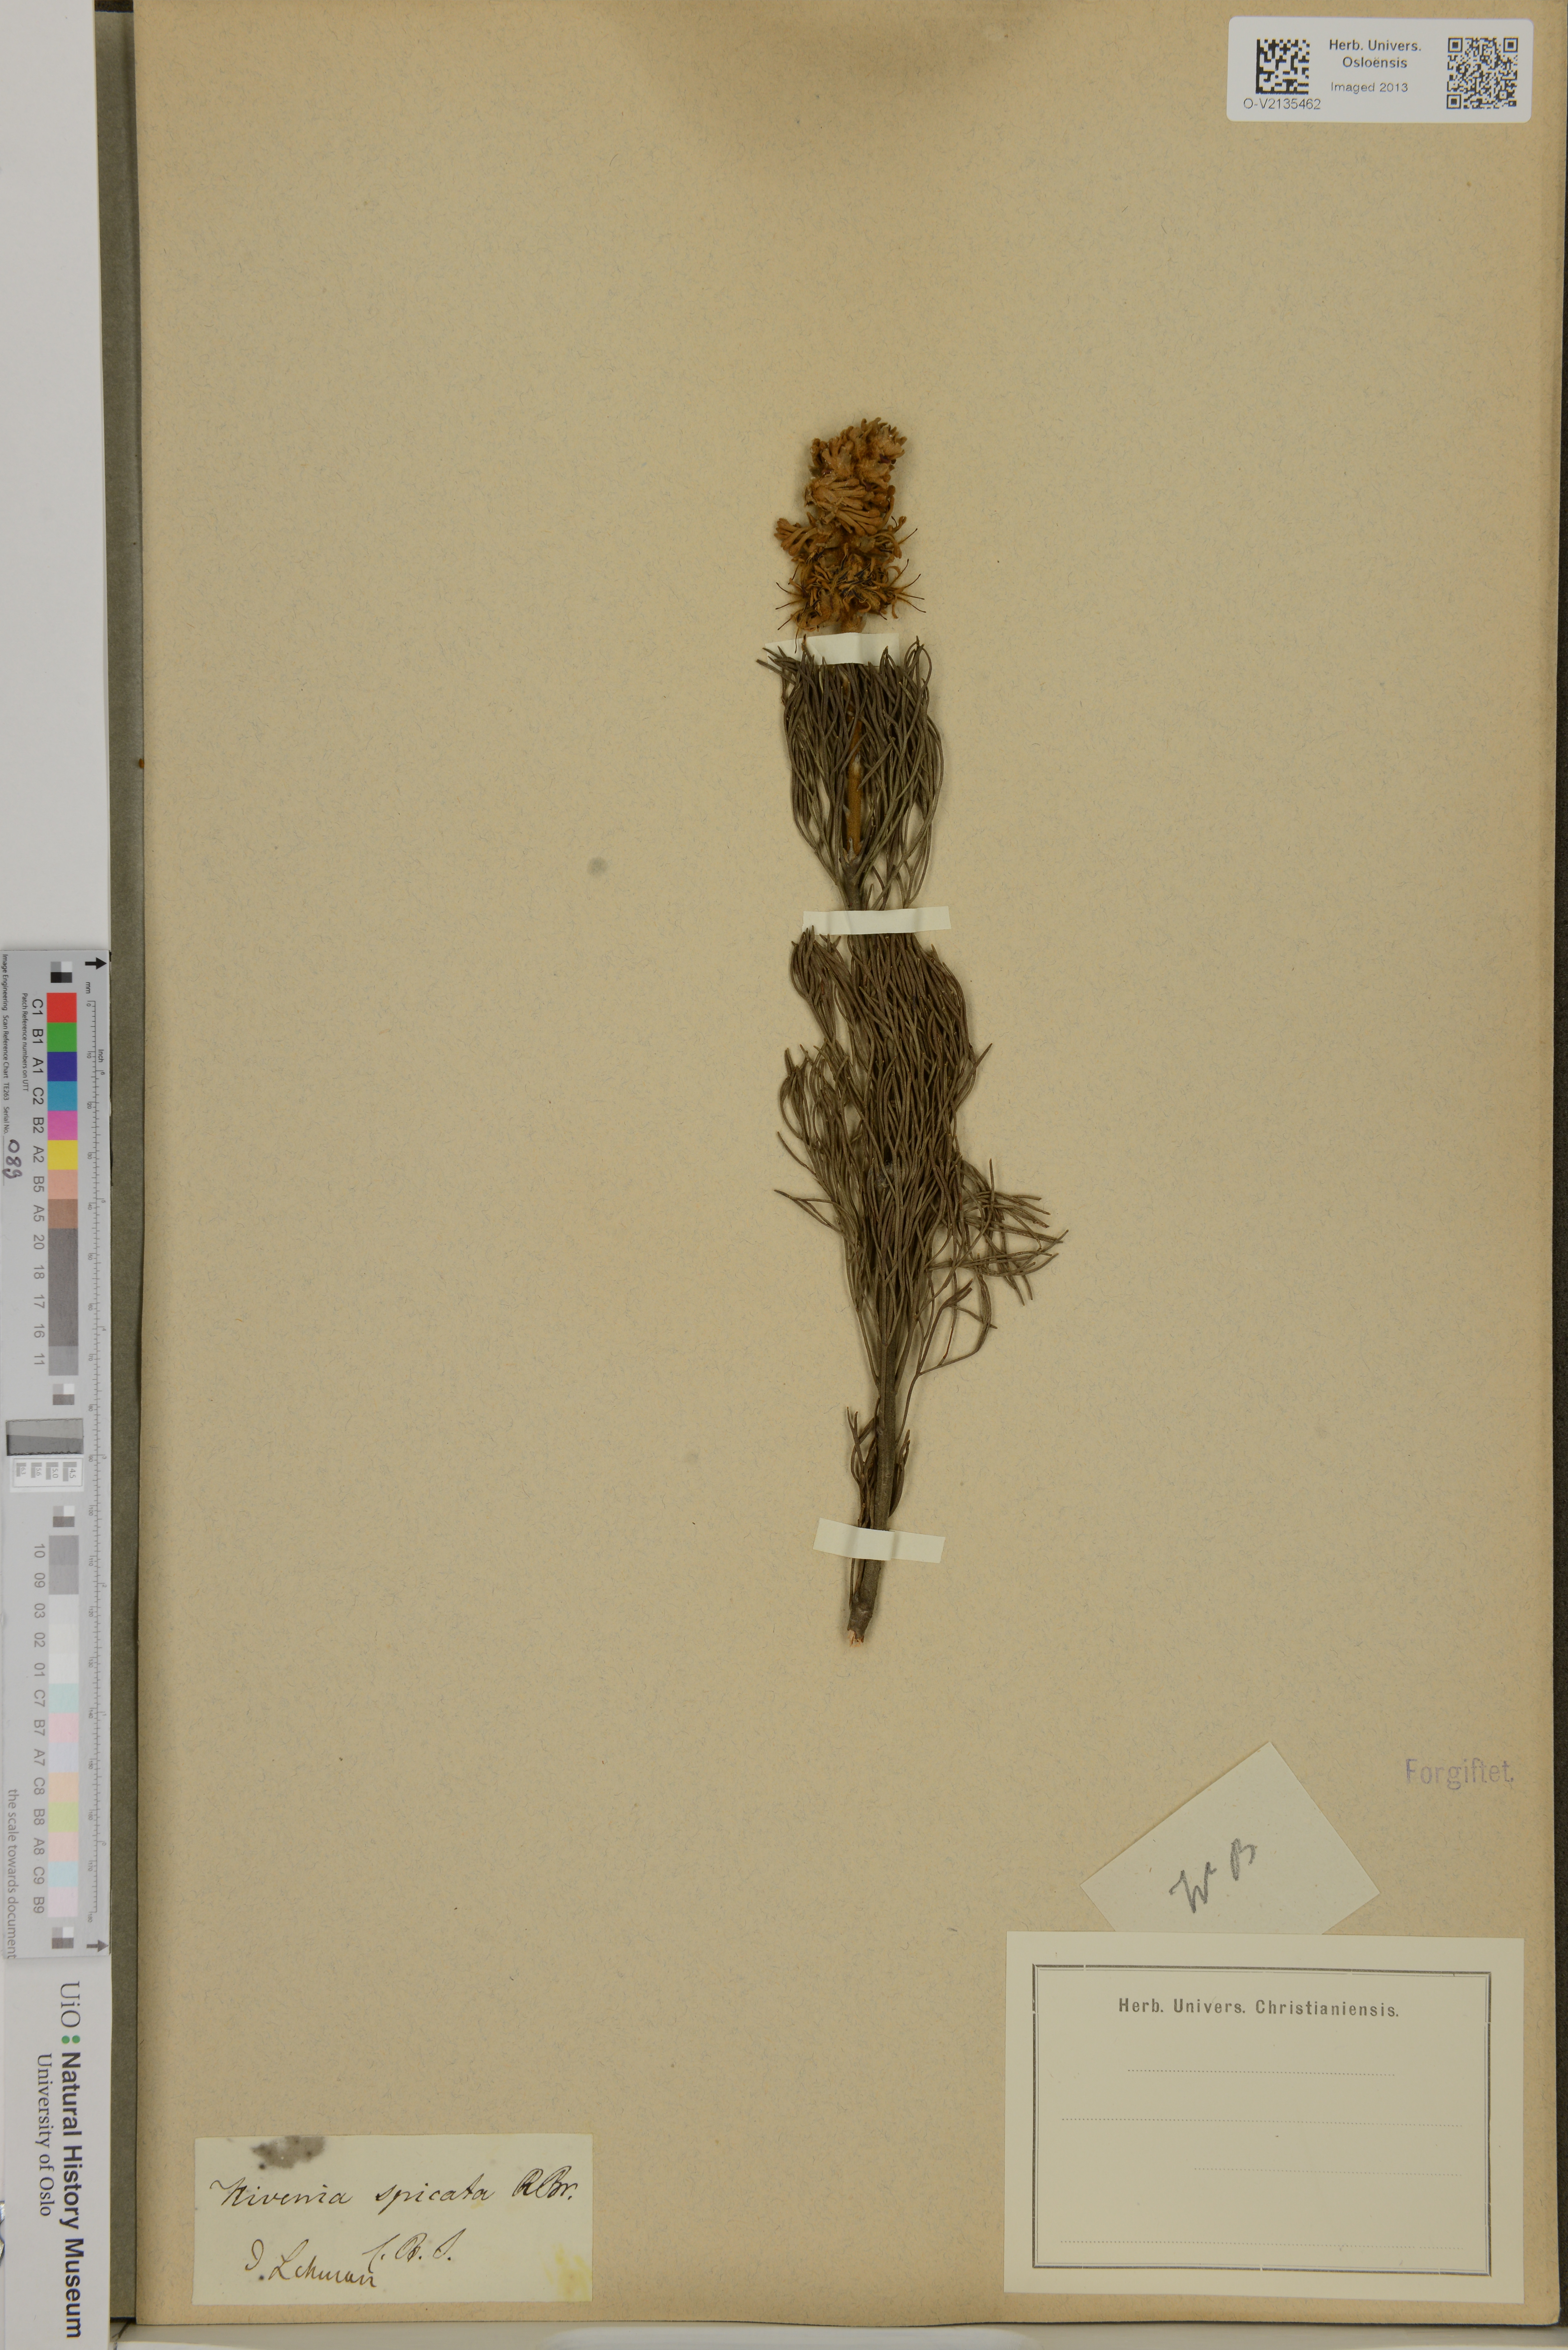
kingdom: Plantae
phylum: Tracheophyta
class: Magnoliopsida
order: Proteales
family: Proteaceae
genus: Paranomus
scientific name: Paranomus spicatus
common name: Kogelberg sceptre
